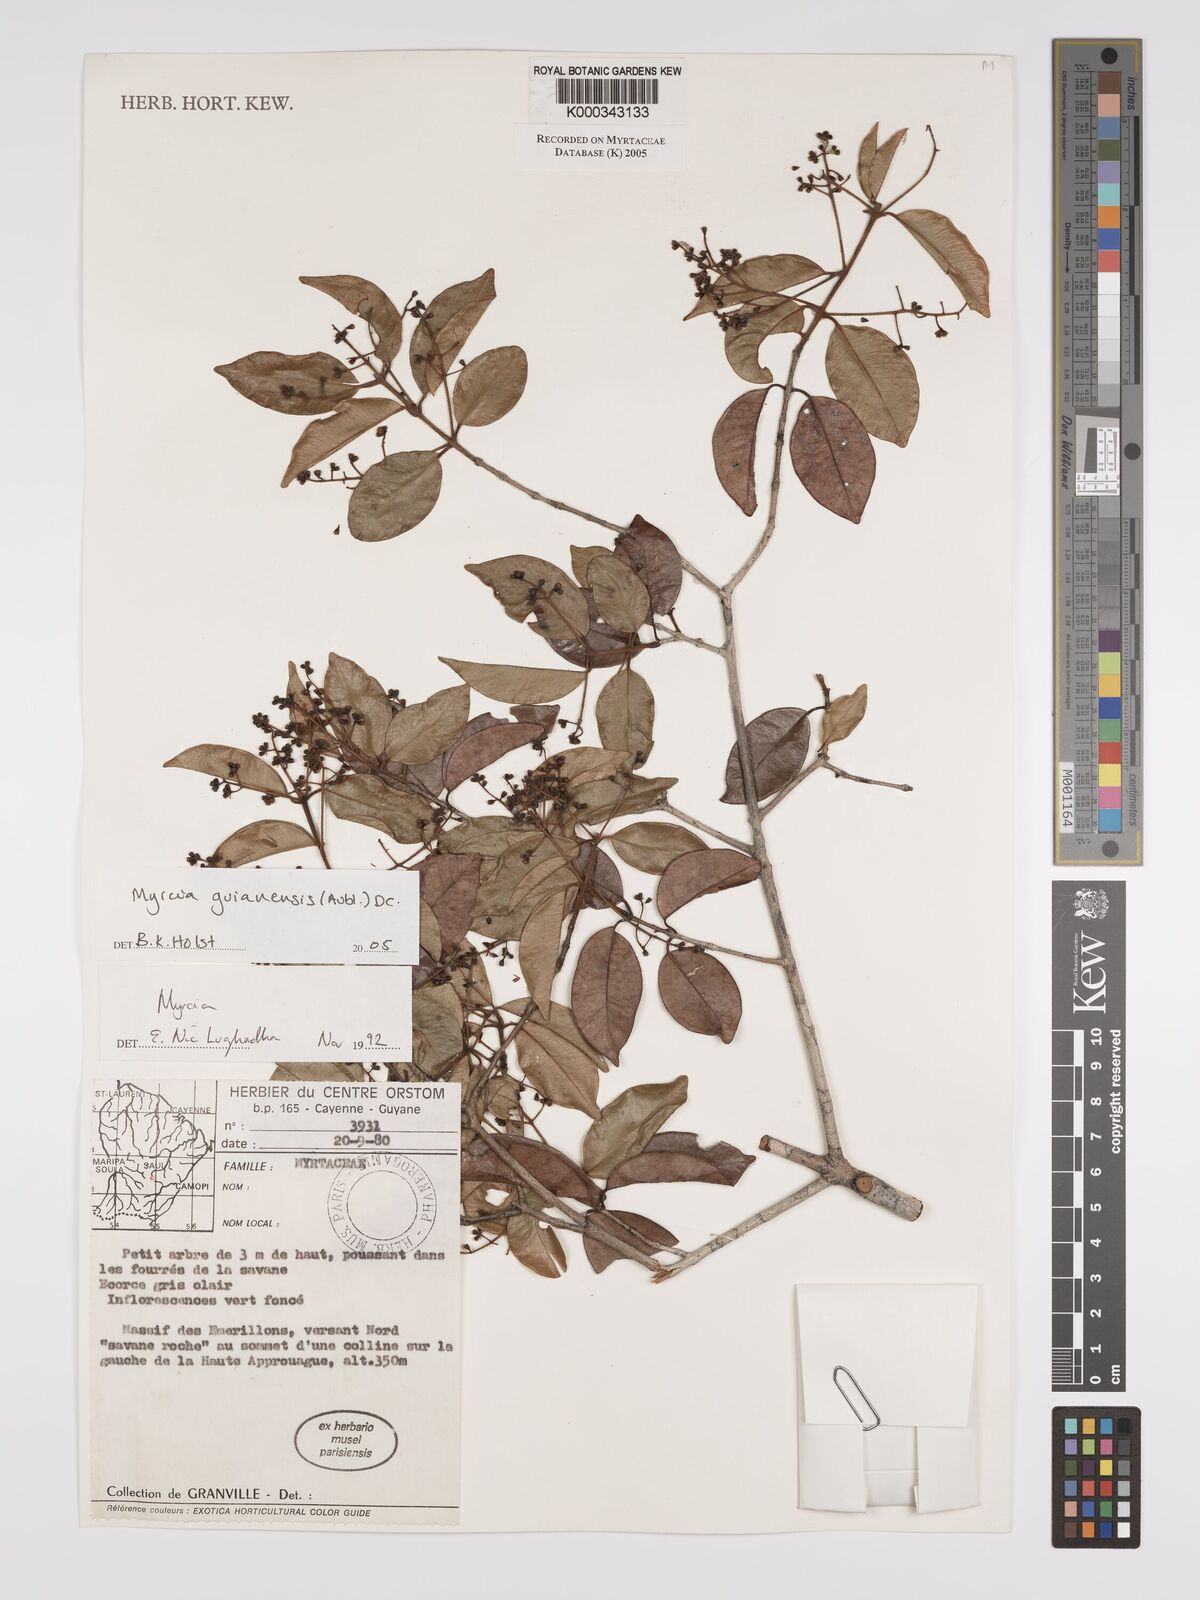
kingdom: Plantae
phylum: Tracheophyta
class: Magnoliopsida
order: Myrtales
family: Myrtaceae
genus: Myrcia
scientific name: Myrcia guianensis
